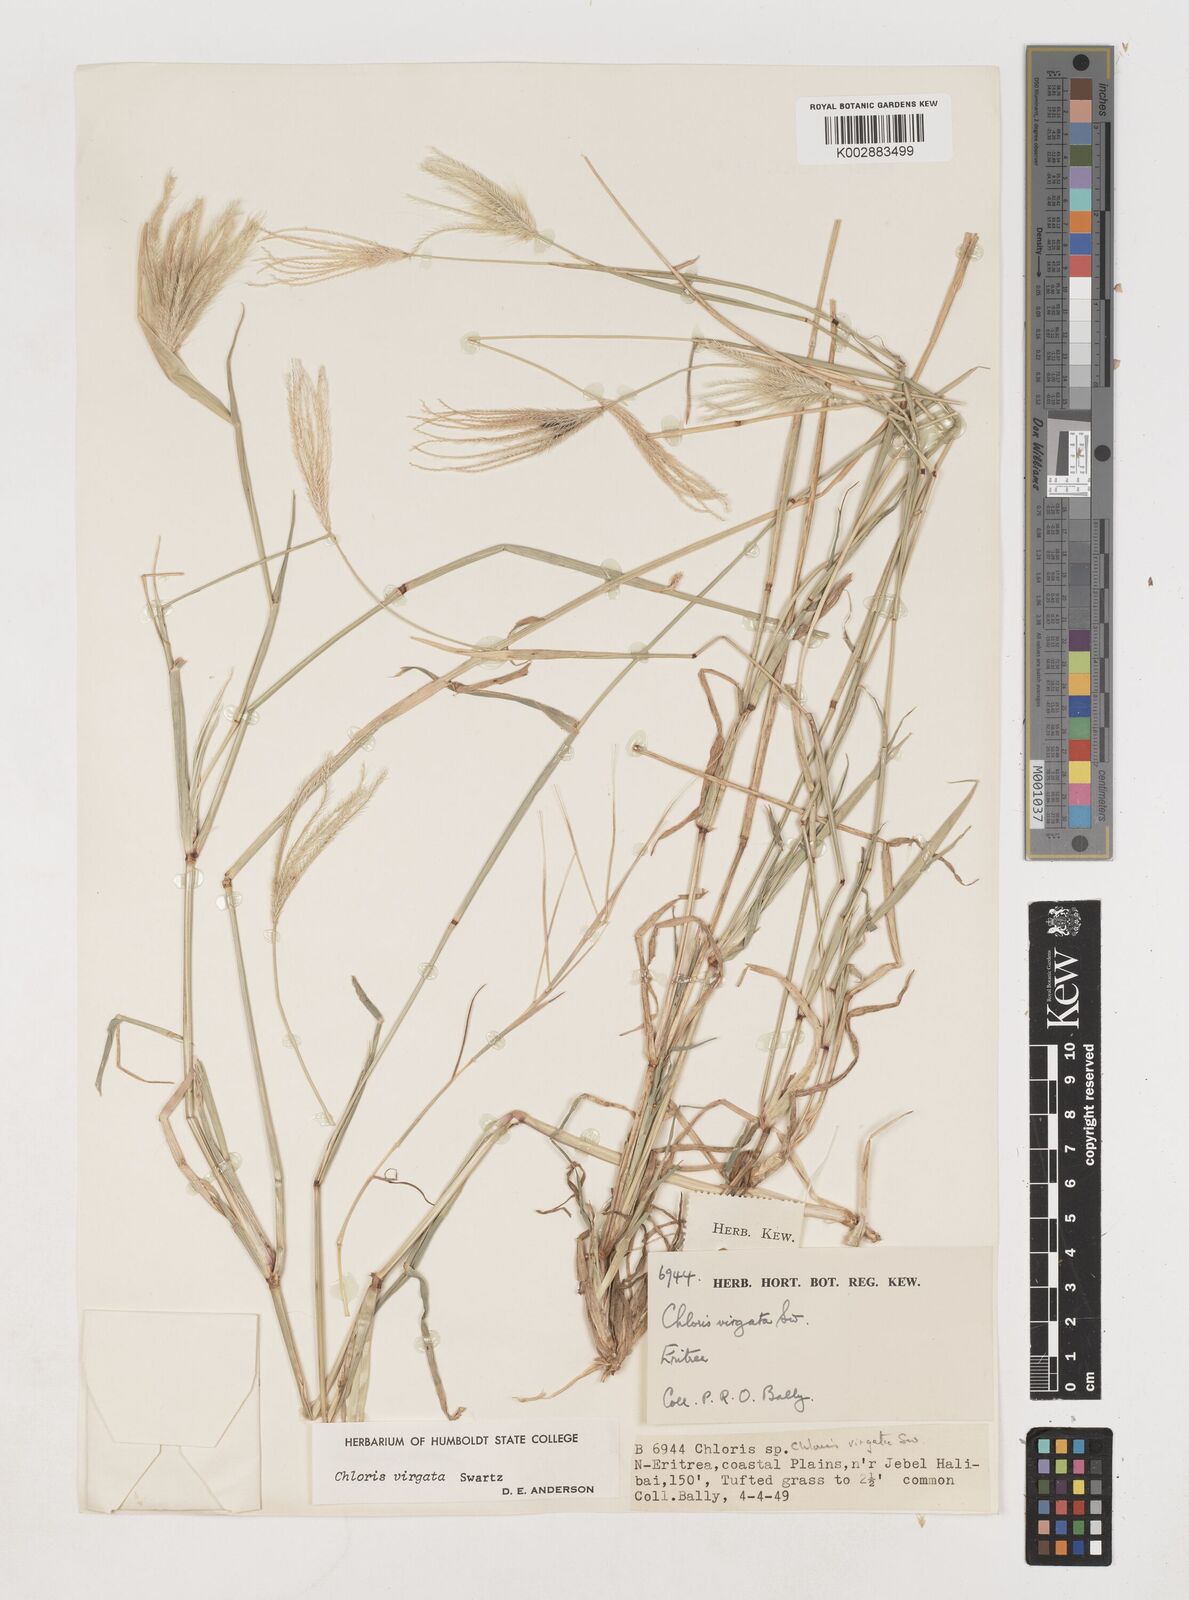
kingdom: Plantae
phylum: Tracheophyta
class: Liliopsida
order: Poales
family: Poaceae
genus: Chloris
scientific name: Chloris virgata
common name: Feathery rhodes-grass
